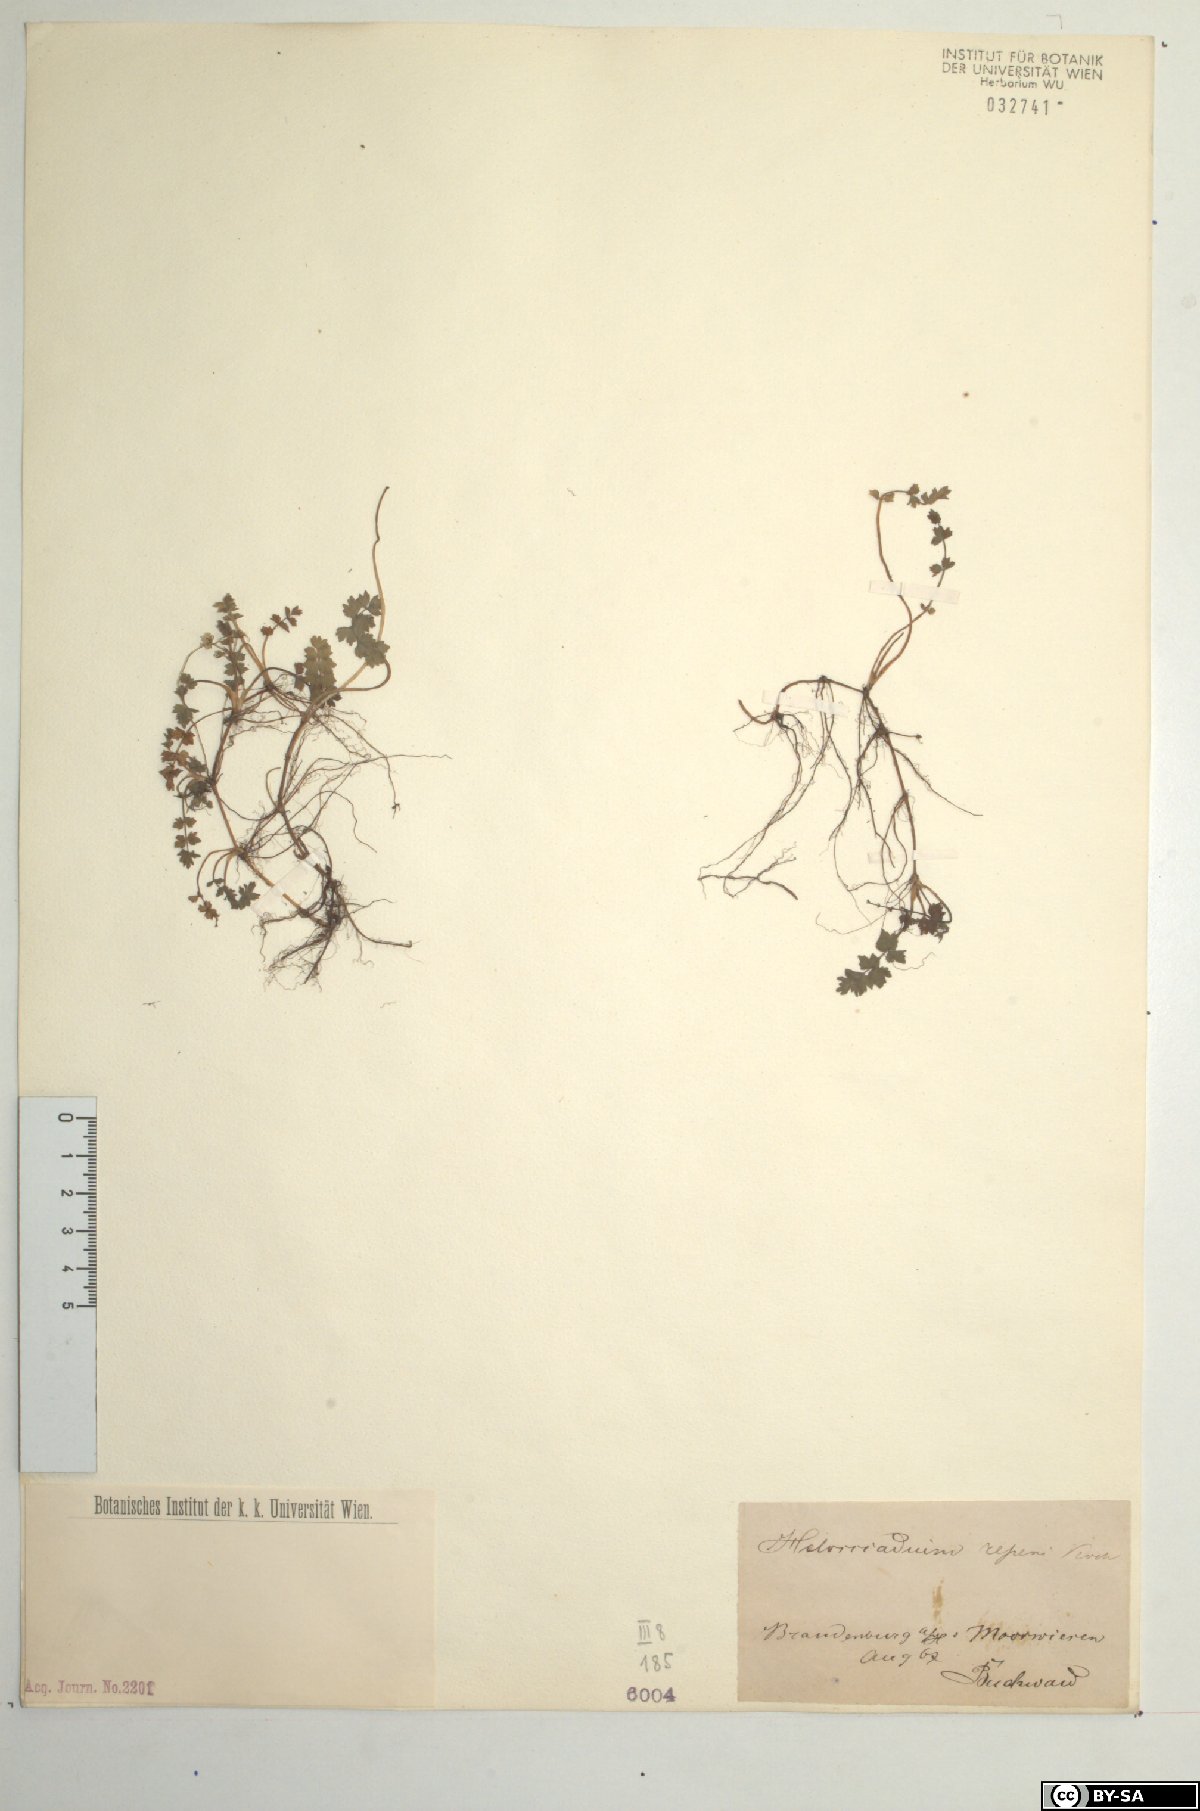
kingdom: Plantae
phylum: Tracheophyta
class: Magnoliopsida
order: Apiales
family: Apiaceae
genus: Helosciadium
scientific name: Helosciadium repens
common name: Creeping marshwort
